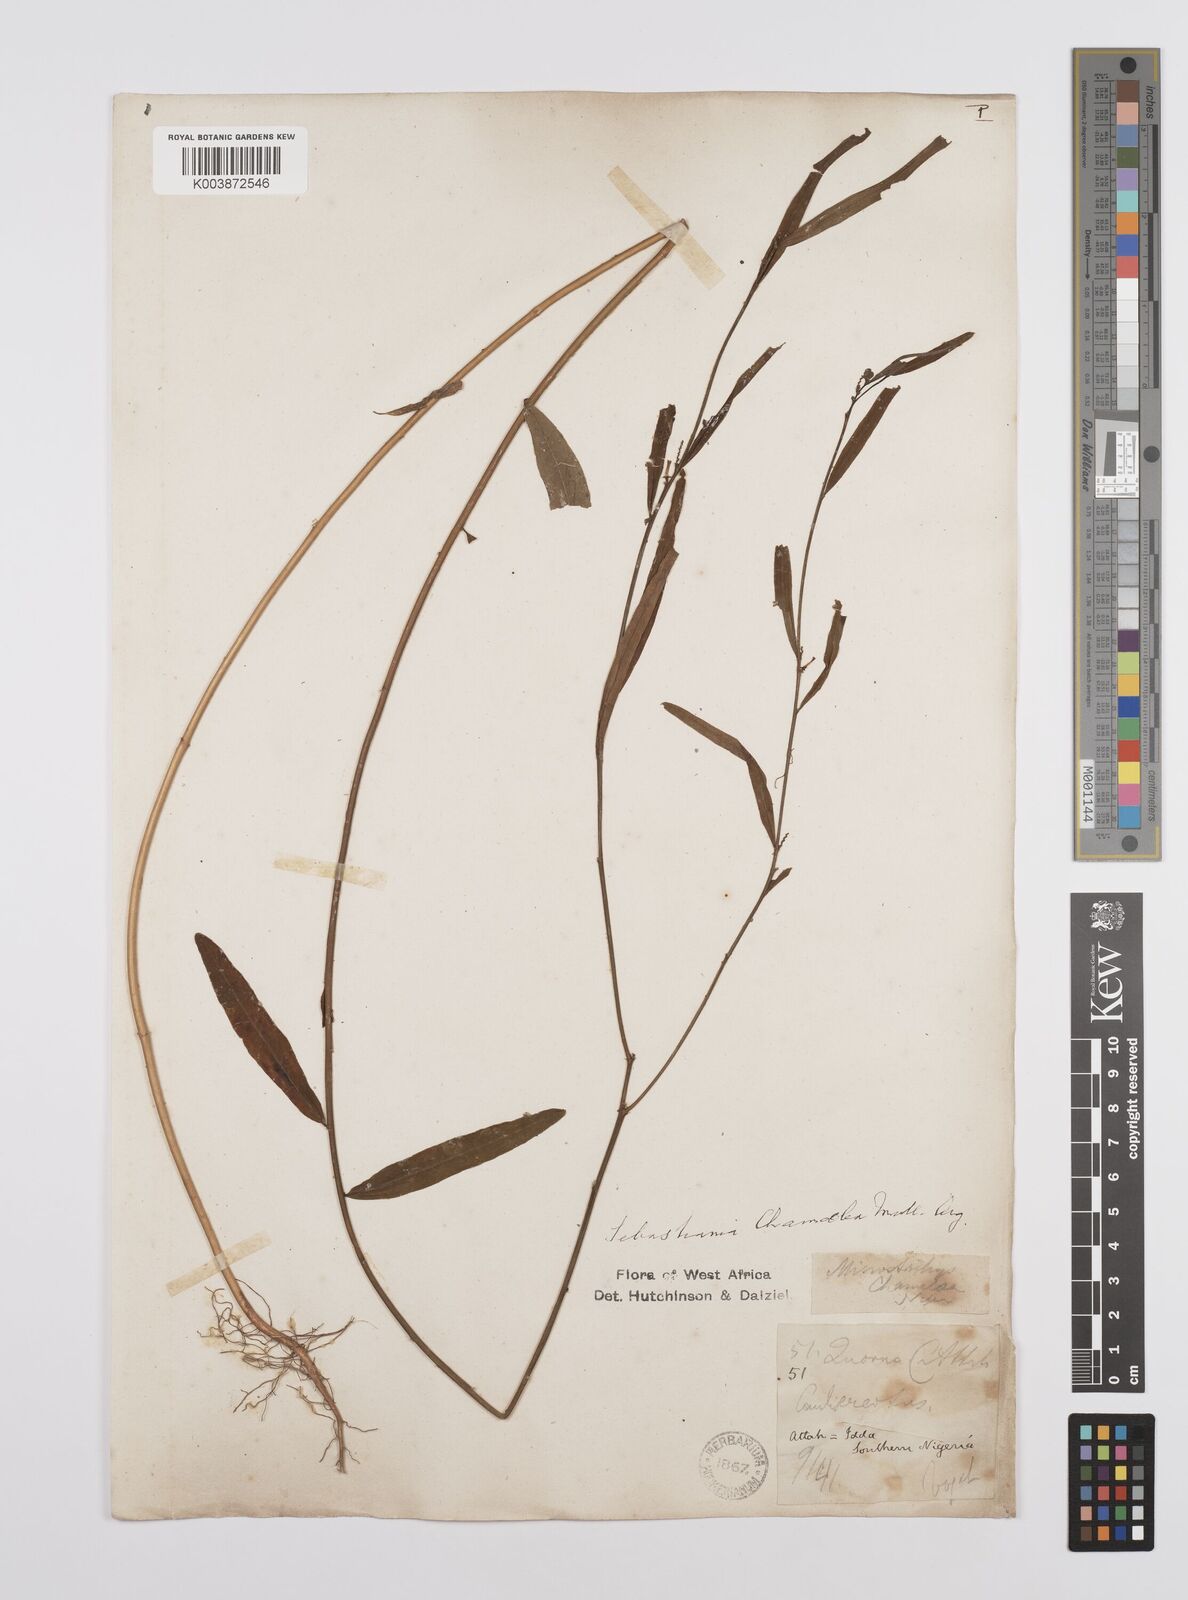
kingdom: Plantae
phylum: Tracheophyta
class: Magnoliopsida
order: Malpighiales
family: Euphorbiaceae
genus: Microstachys
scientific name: Microstachys chamaelea
